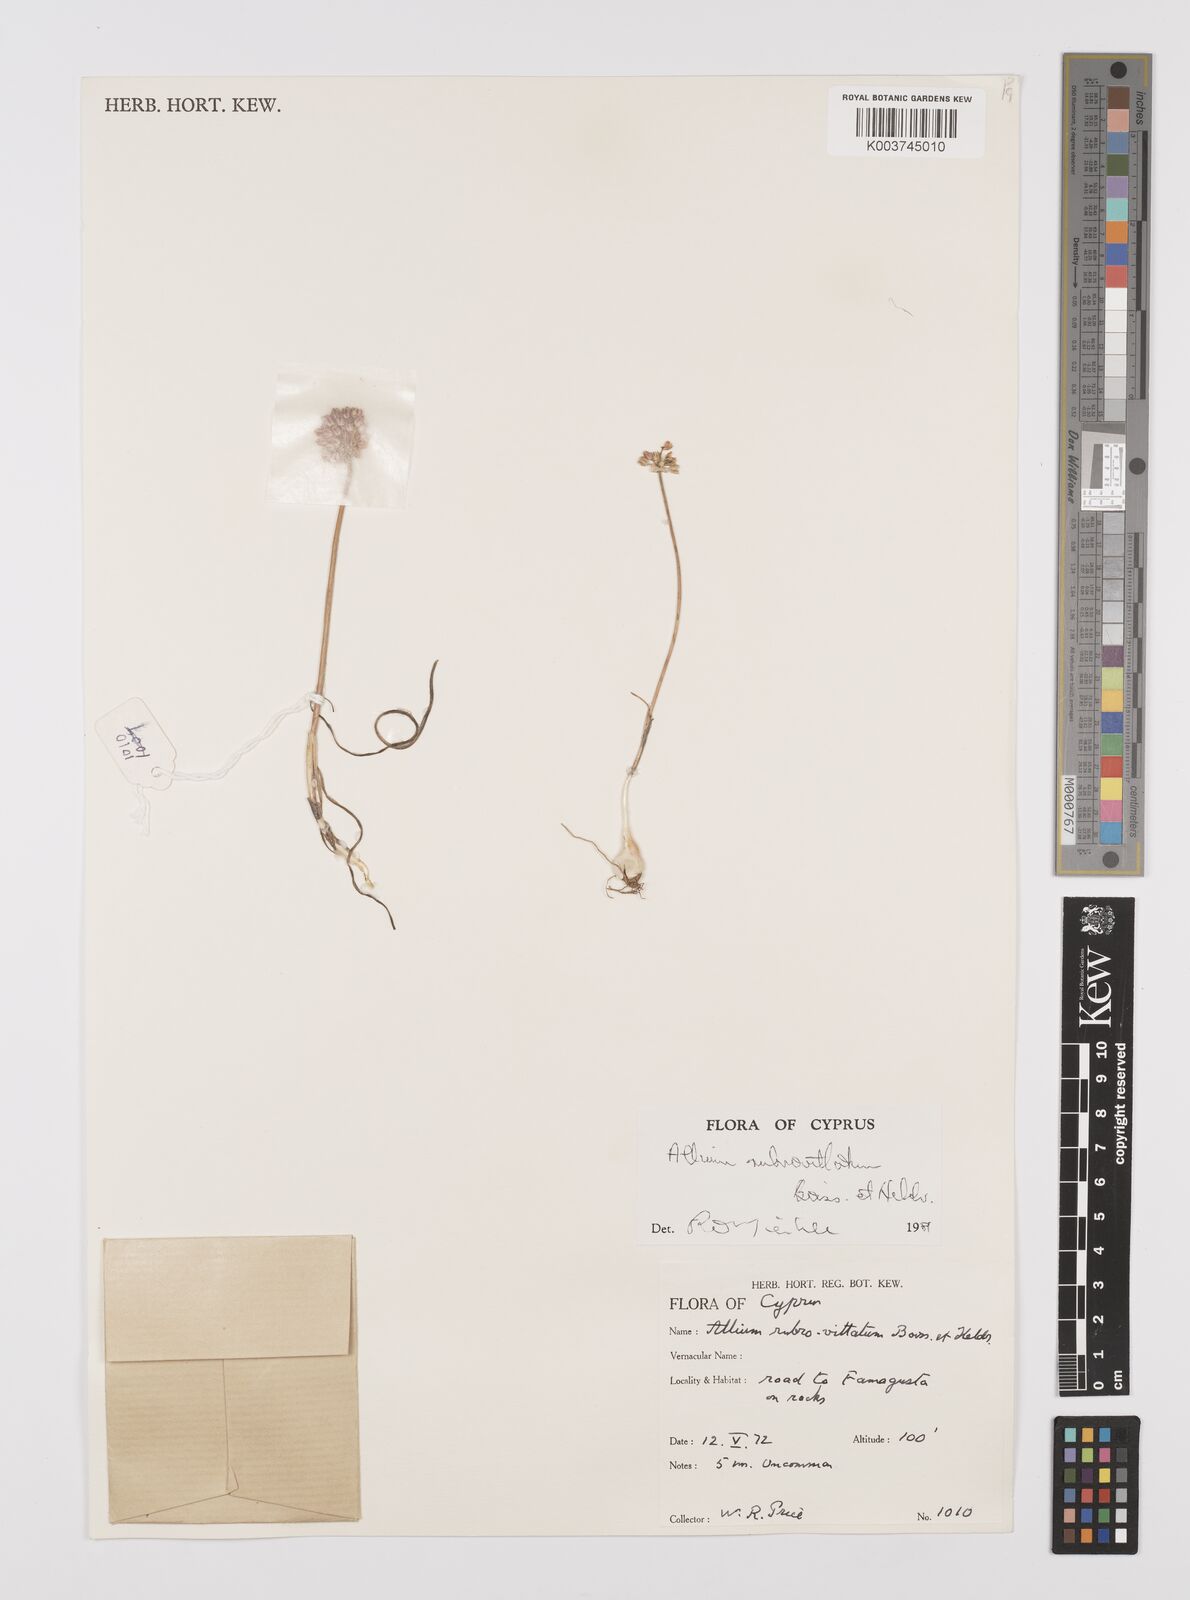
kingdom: Plantae
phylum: Tracheophyta
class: Liliopsida
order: Asparagales
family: Amaryllidaceae
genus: Allium
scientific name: Allium rubrovittatum
